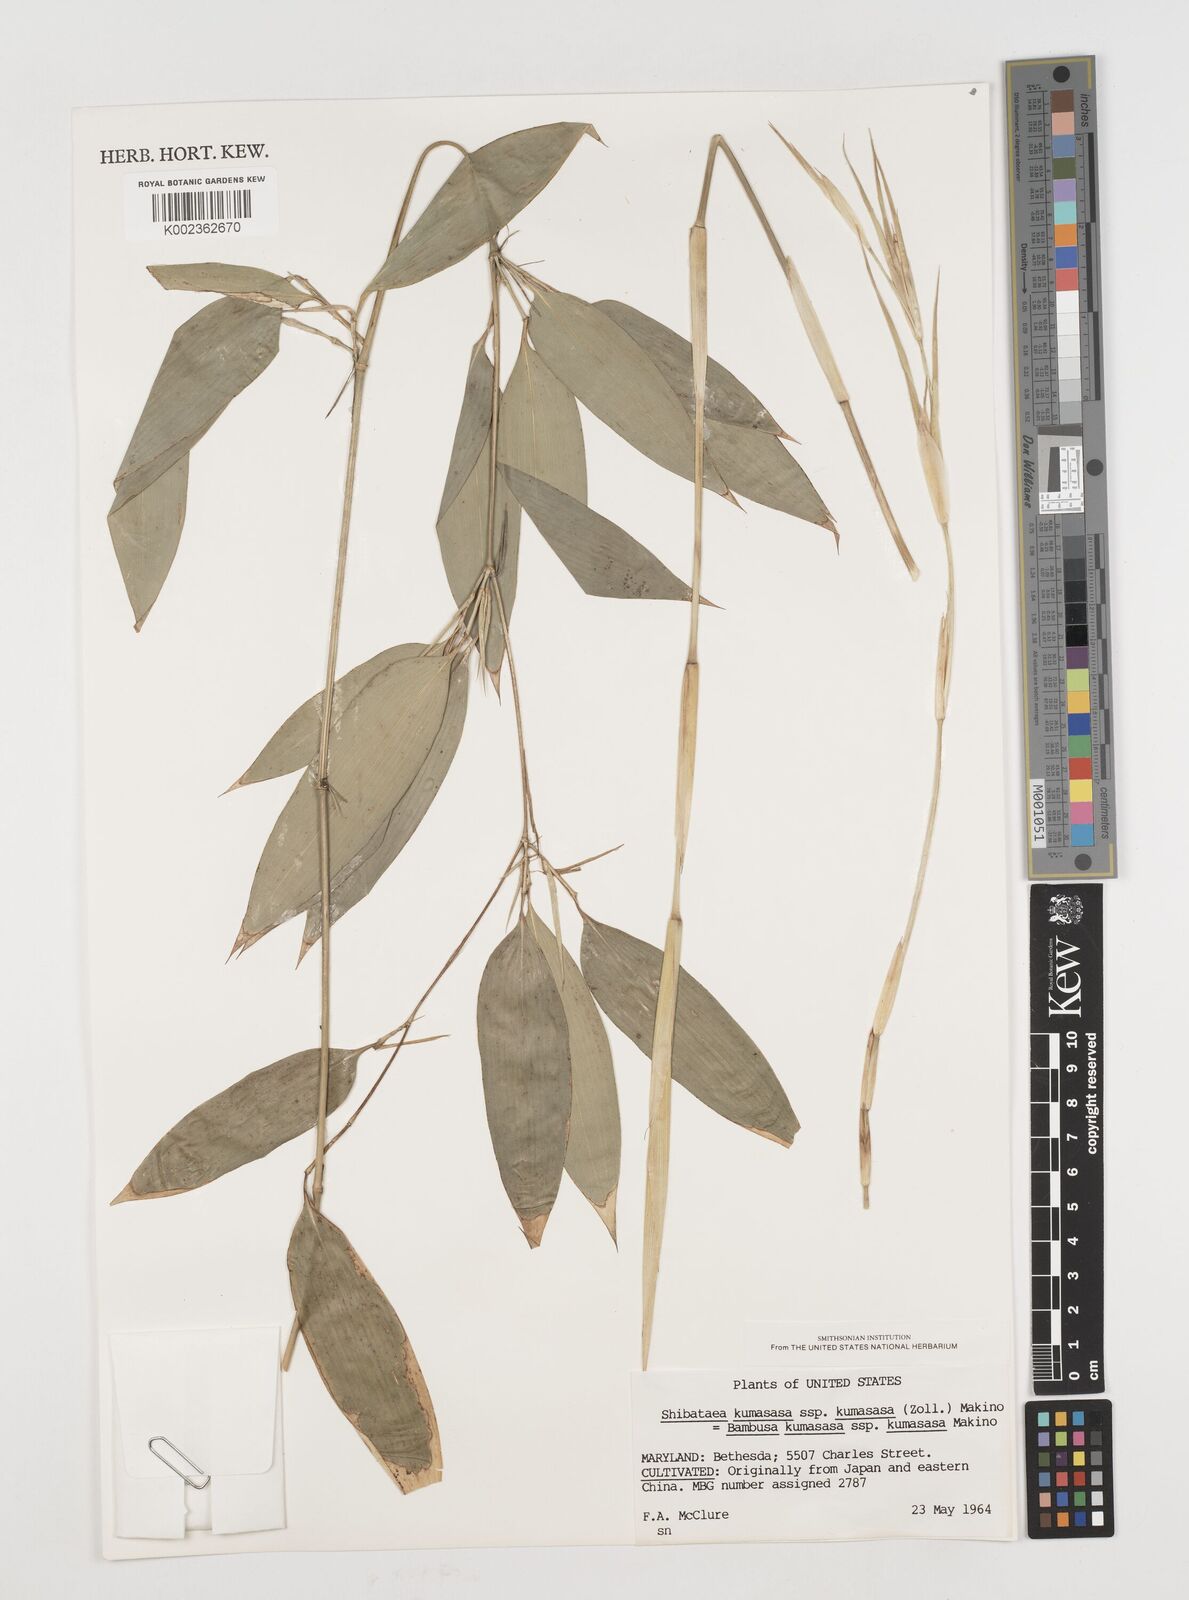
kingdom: Plantae
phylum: Tracheophyta
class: Liliopsida
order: Poales
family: Poaceae
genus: Shibataea
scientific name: Shibataea
